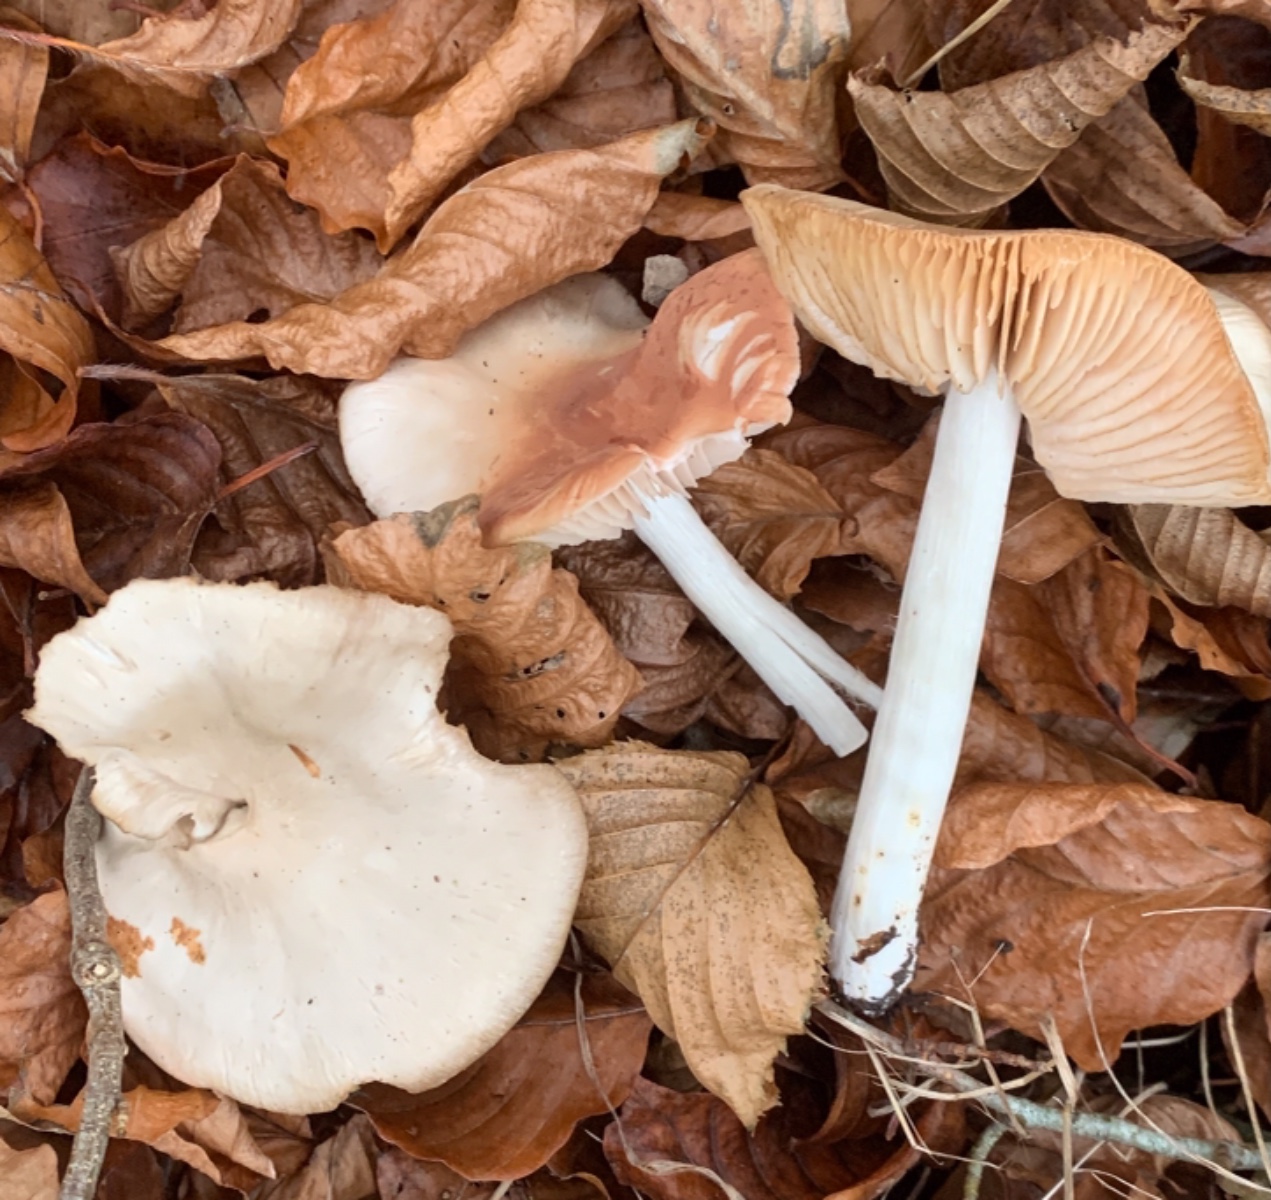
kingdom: Fungi
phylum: Basidiomycota
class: Agaricomycetes
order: Agaricales
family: Entolomataceae
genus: Entoloma
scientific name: Entoloma rhodopolium
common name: skov-rødblad
